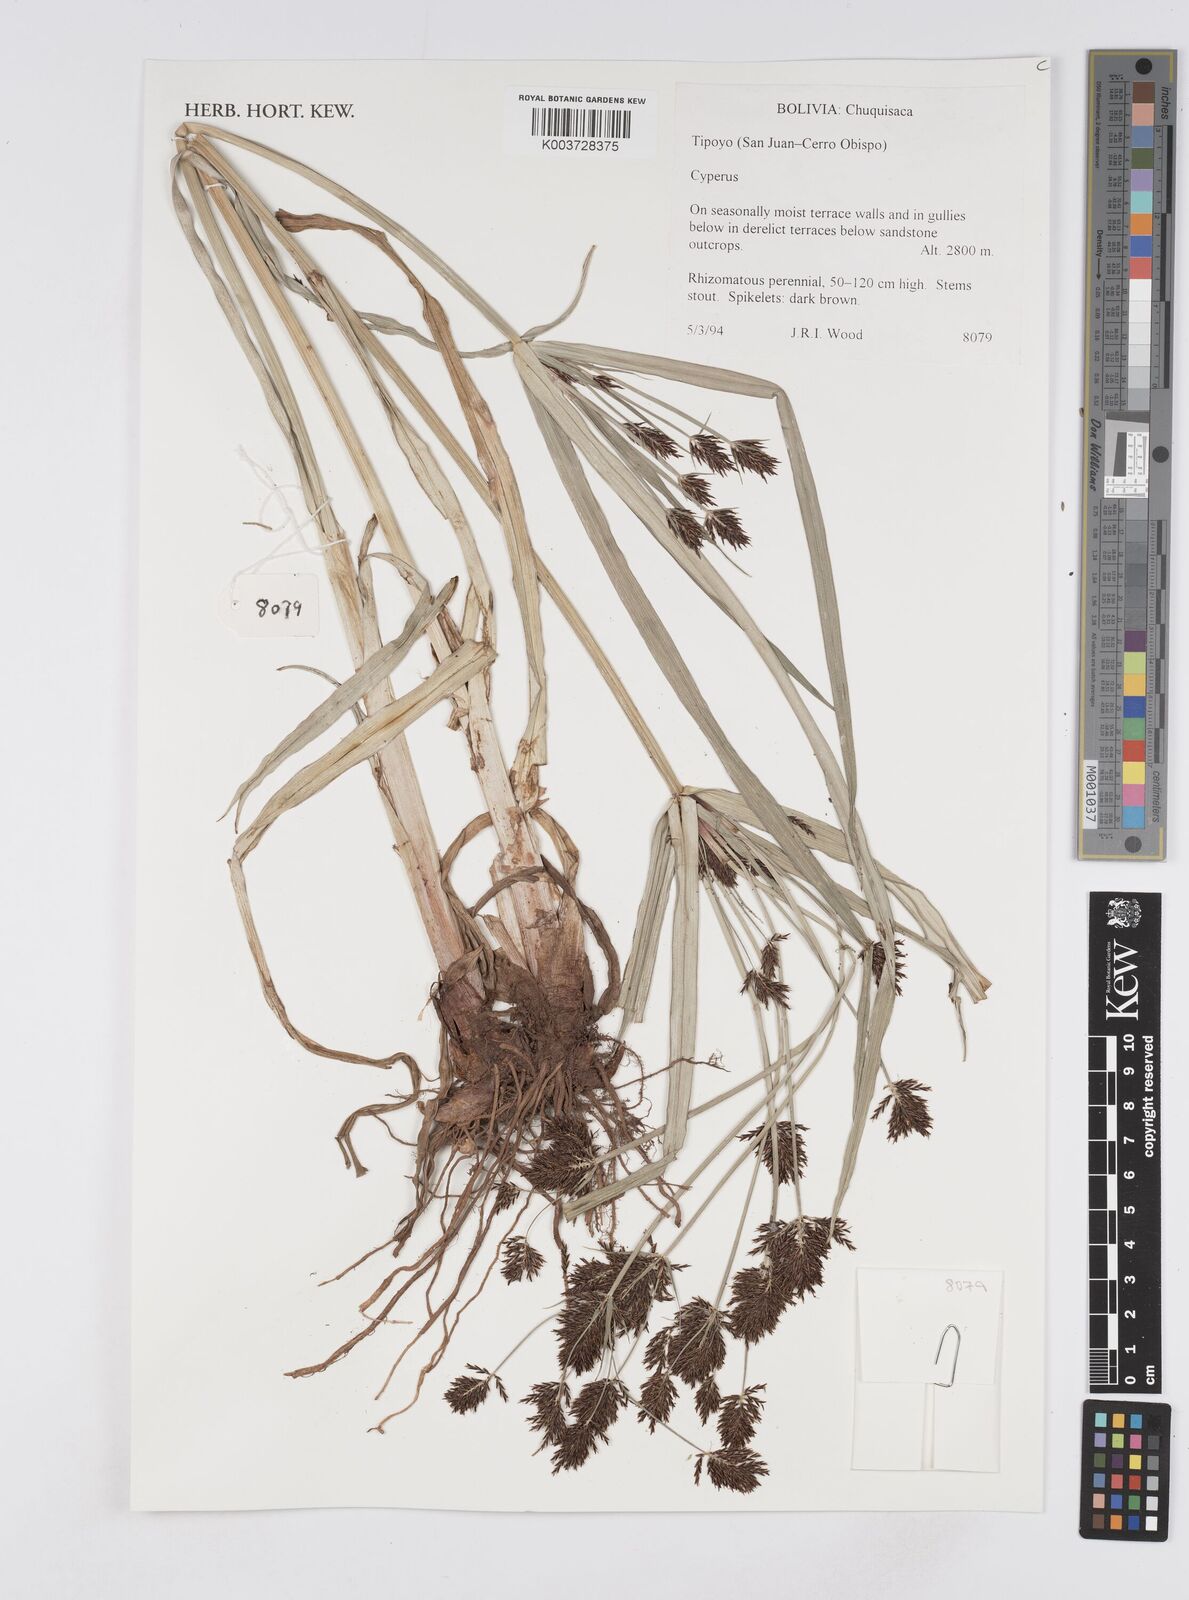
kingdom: Plantae
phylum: Tracheophyta
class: Liliopsida
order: Poales
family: Cyperaceae
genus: Cyperus
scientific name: Cyperus
